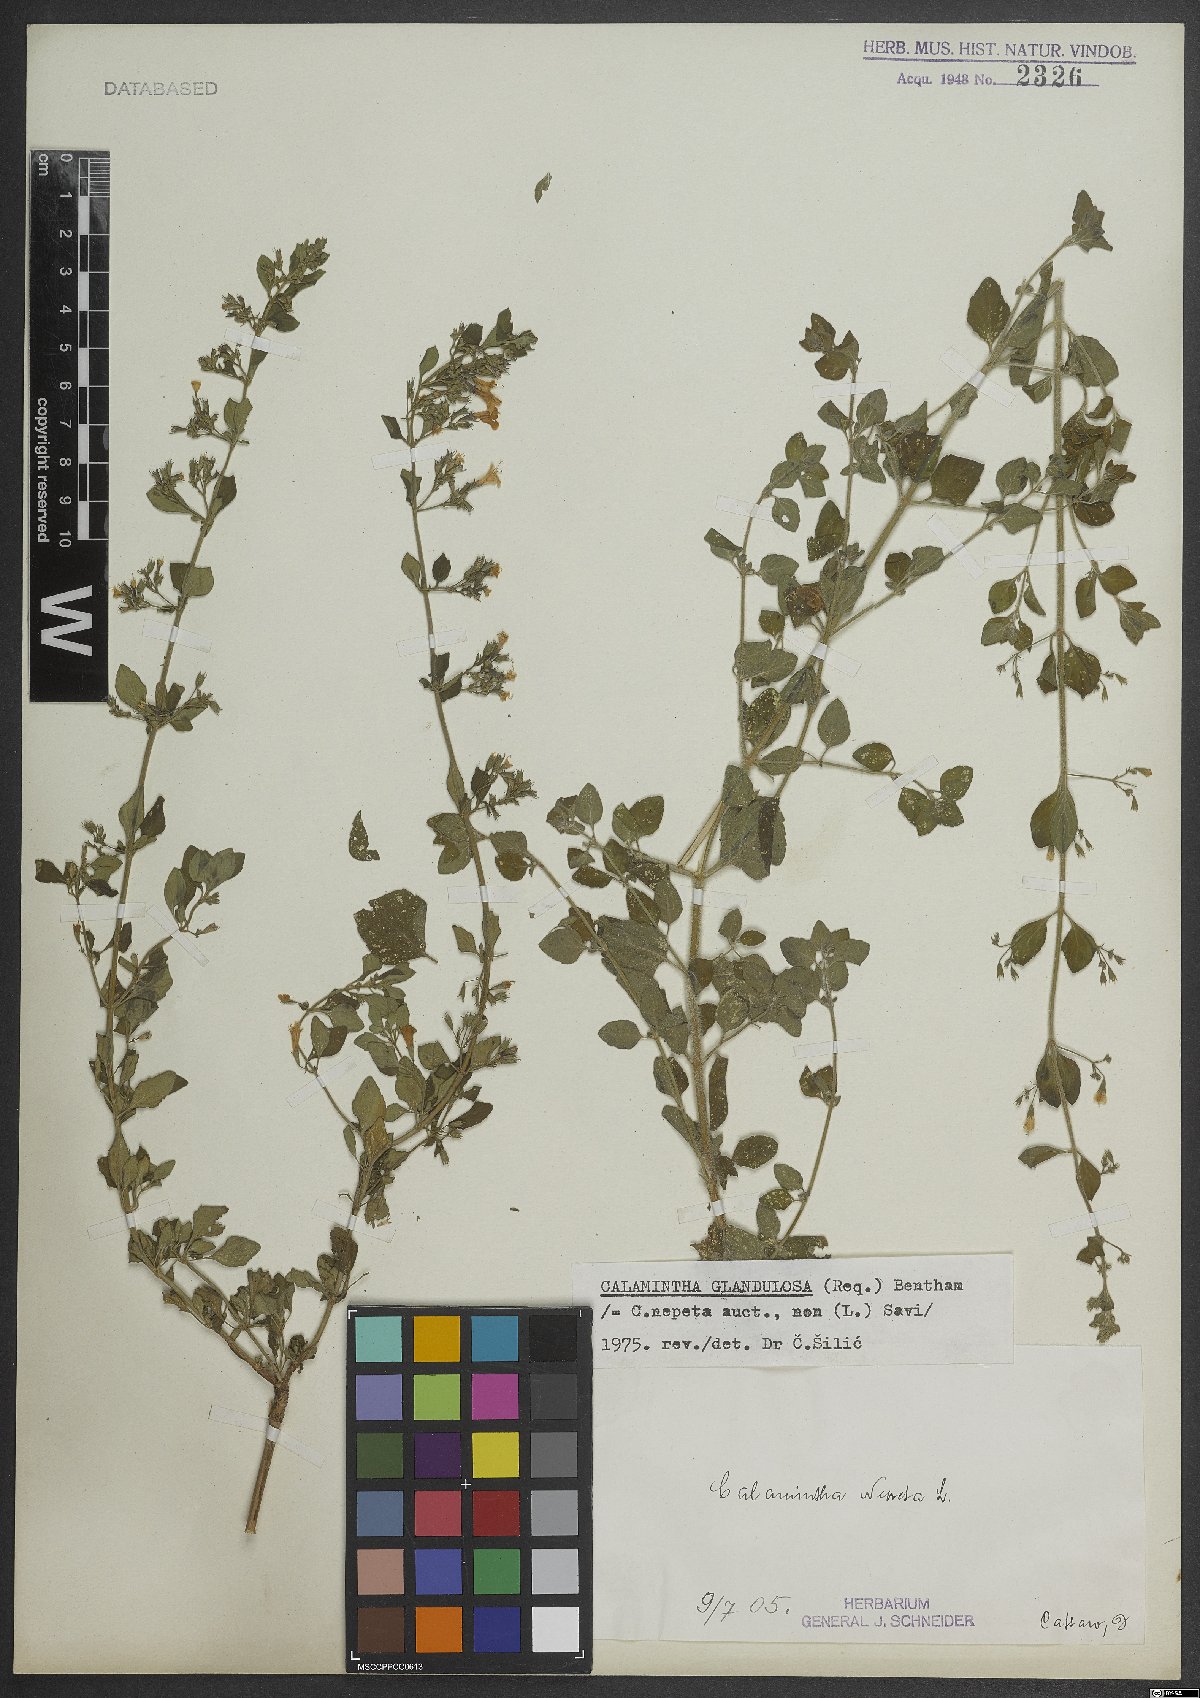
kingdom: Plantae
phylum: Tracheophyta
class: Magnoliopsida
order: Lamiales
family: Lamiaceae
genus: Clinopodium
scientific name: Clinopodium nepeta
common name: Lesser calamint
